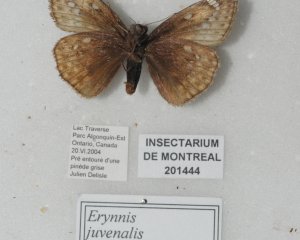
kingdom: Animalia
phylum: Arthropoda
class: Insecta
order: Lepidoptera
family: Hesperiidae
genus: Gesta
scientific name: Gesta
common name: Juvenal's Duskywing
